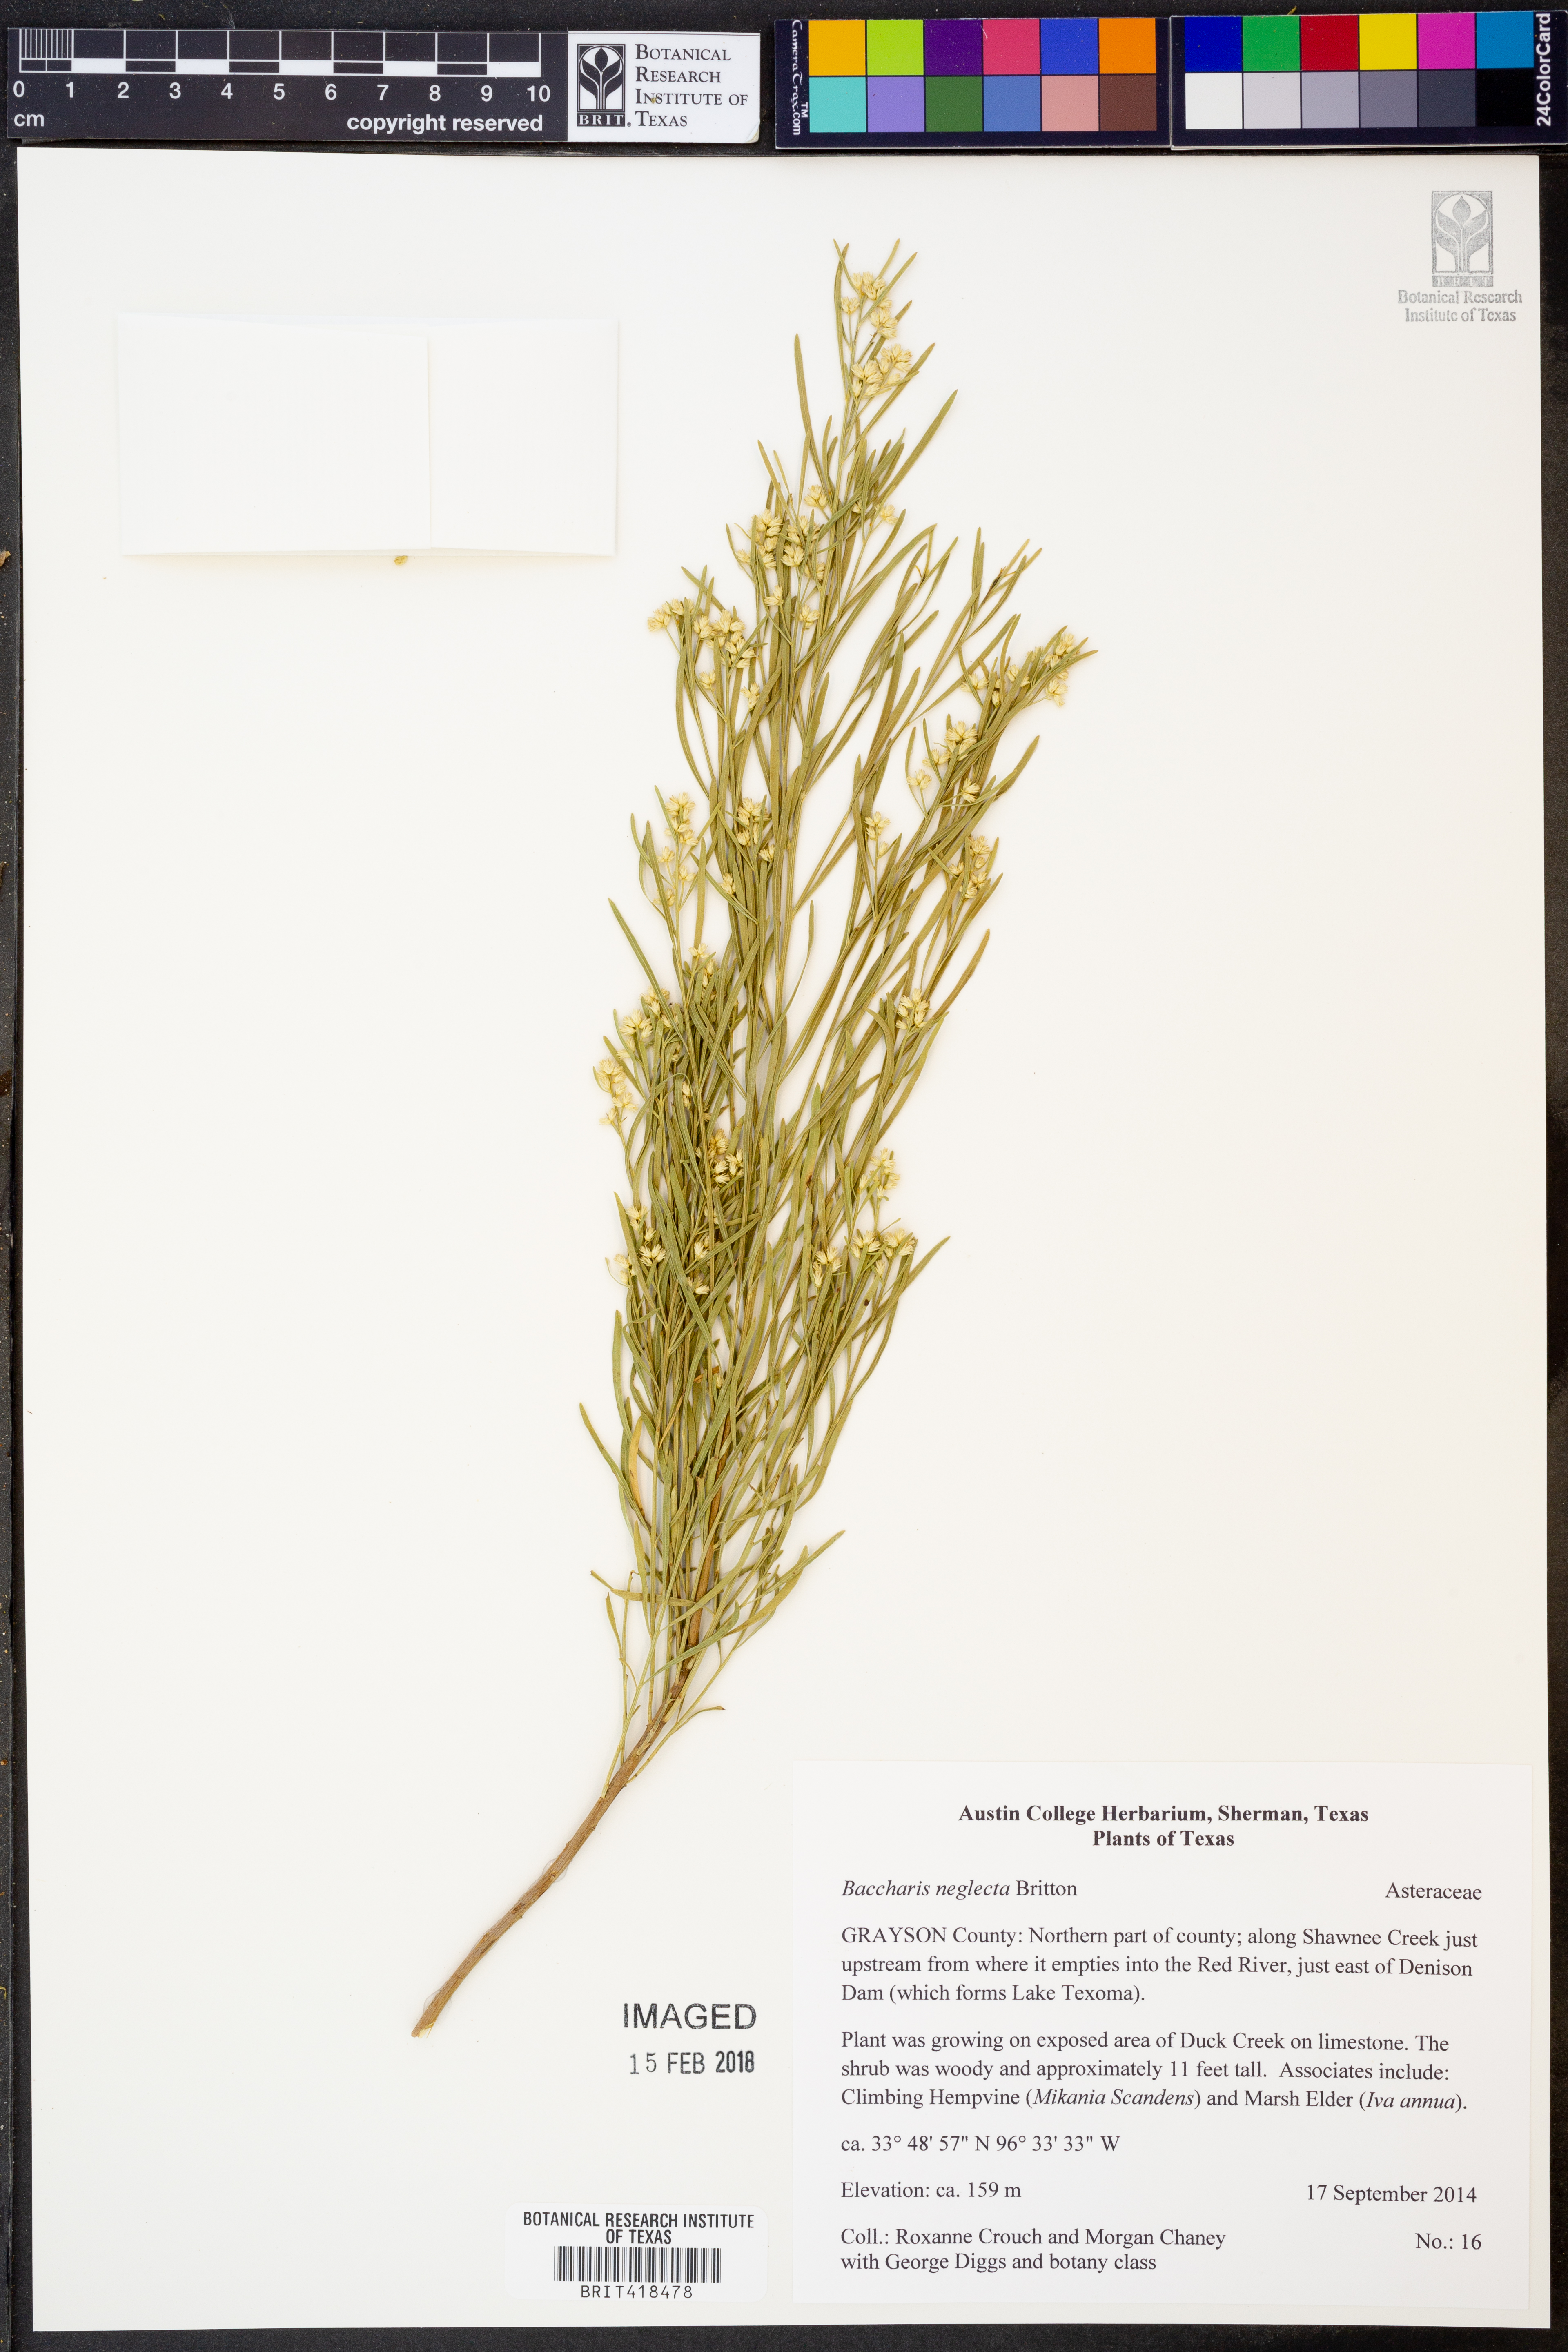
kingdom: Plantae
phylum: Tracheophyta
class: Magnoliopsida
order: Asterales
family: Asteraceae
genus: Baccharis
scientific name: Baccharis neglecta
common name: Roosevelt-weed
